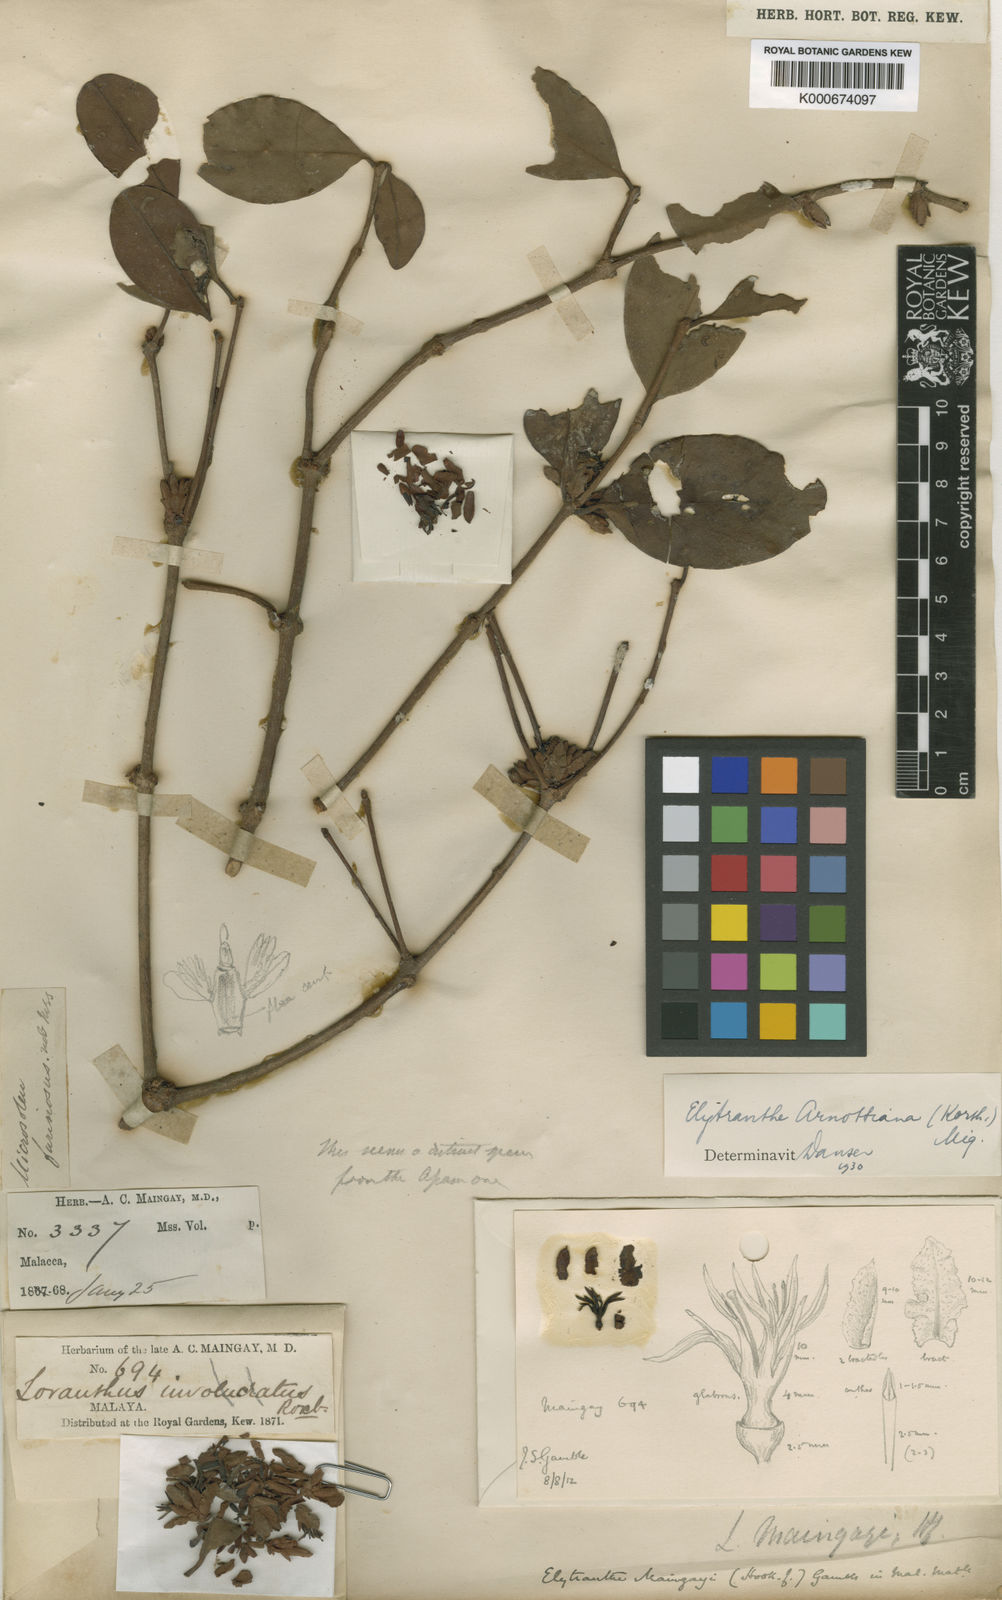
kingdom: Plantae
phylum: Tracheophyta
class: Magnoliopsida
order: Santalales
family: Loranthaceae
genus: Elytranthe
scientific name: Elytranthe arnottiana
